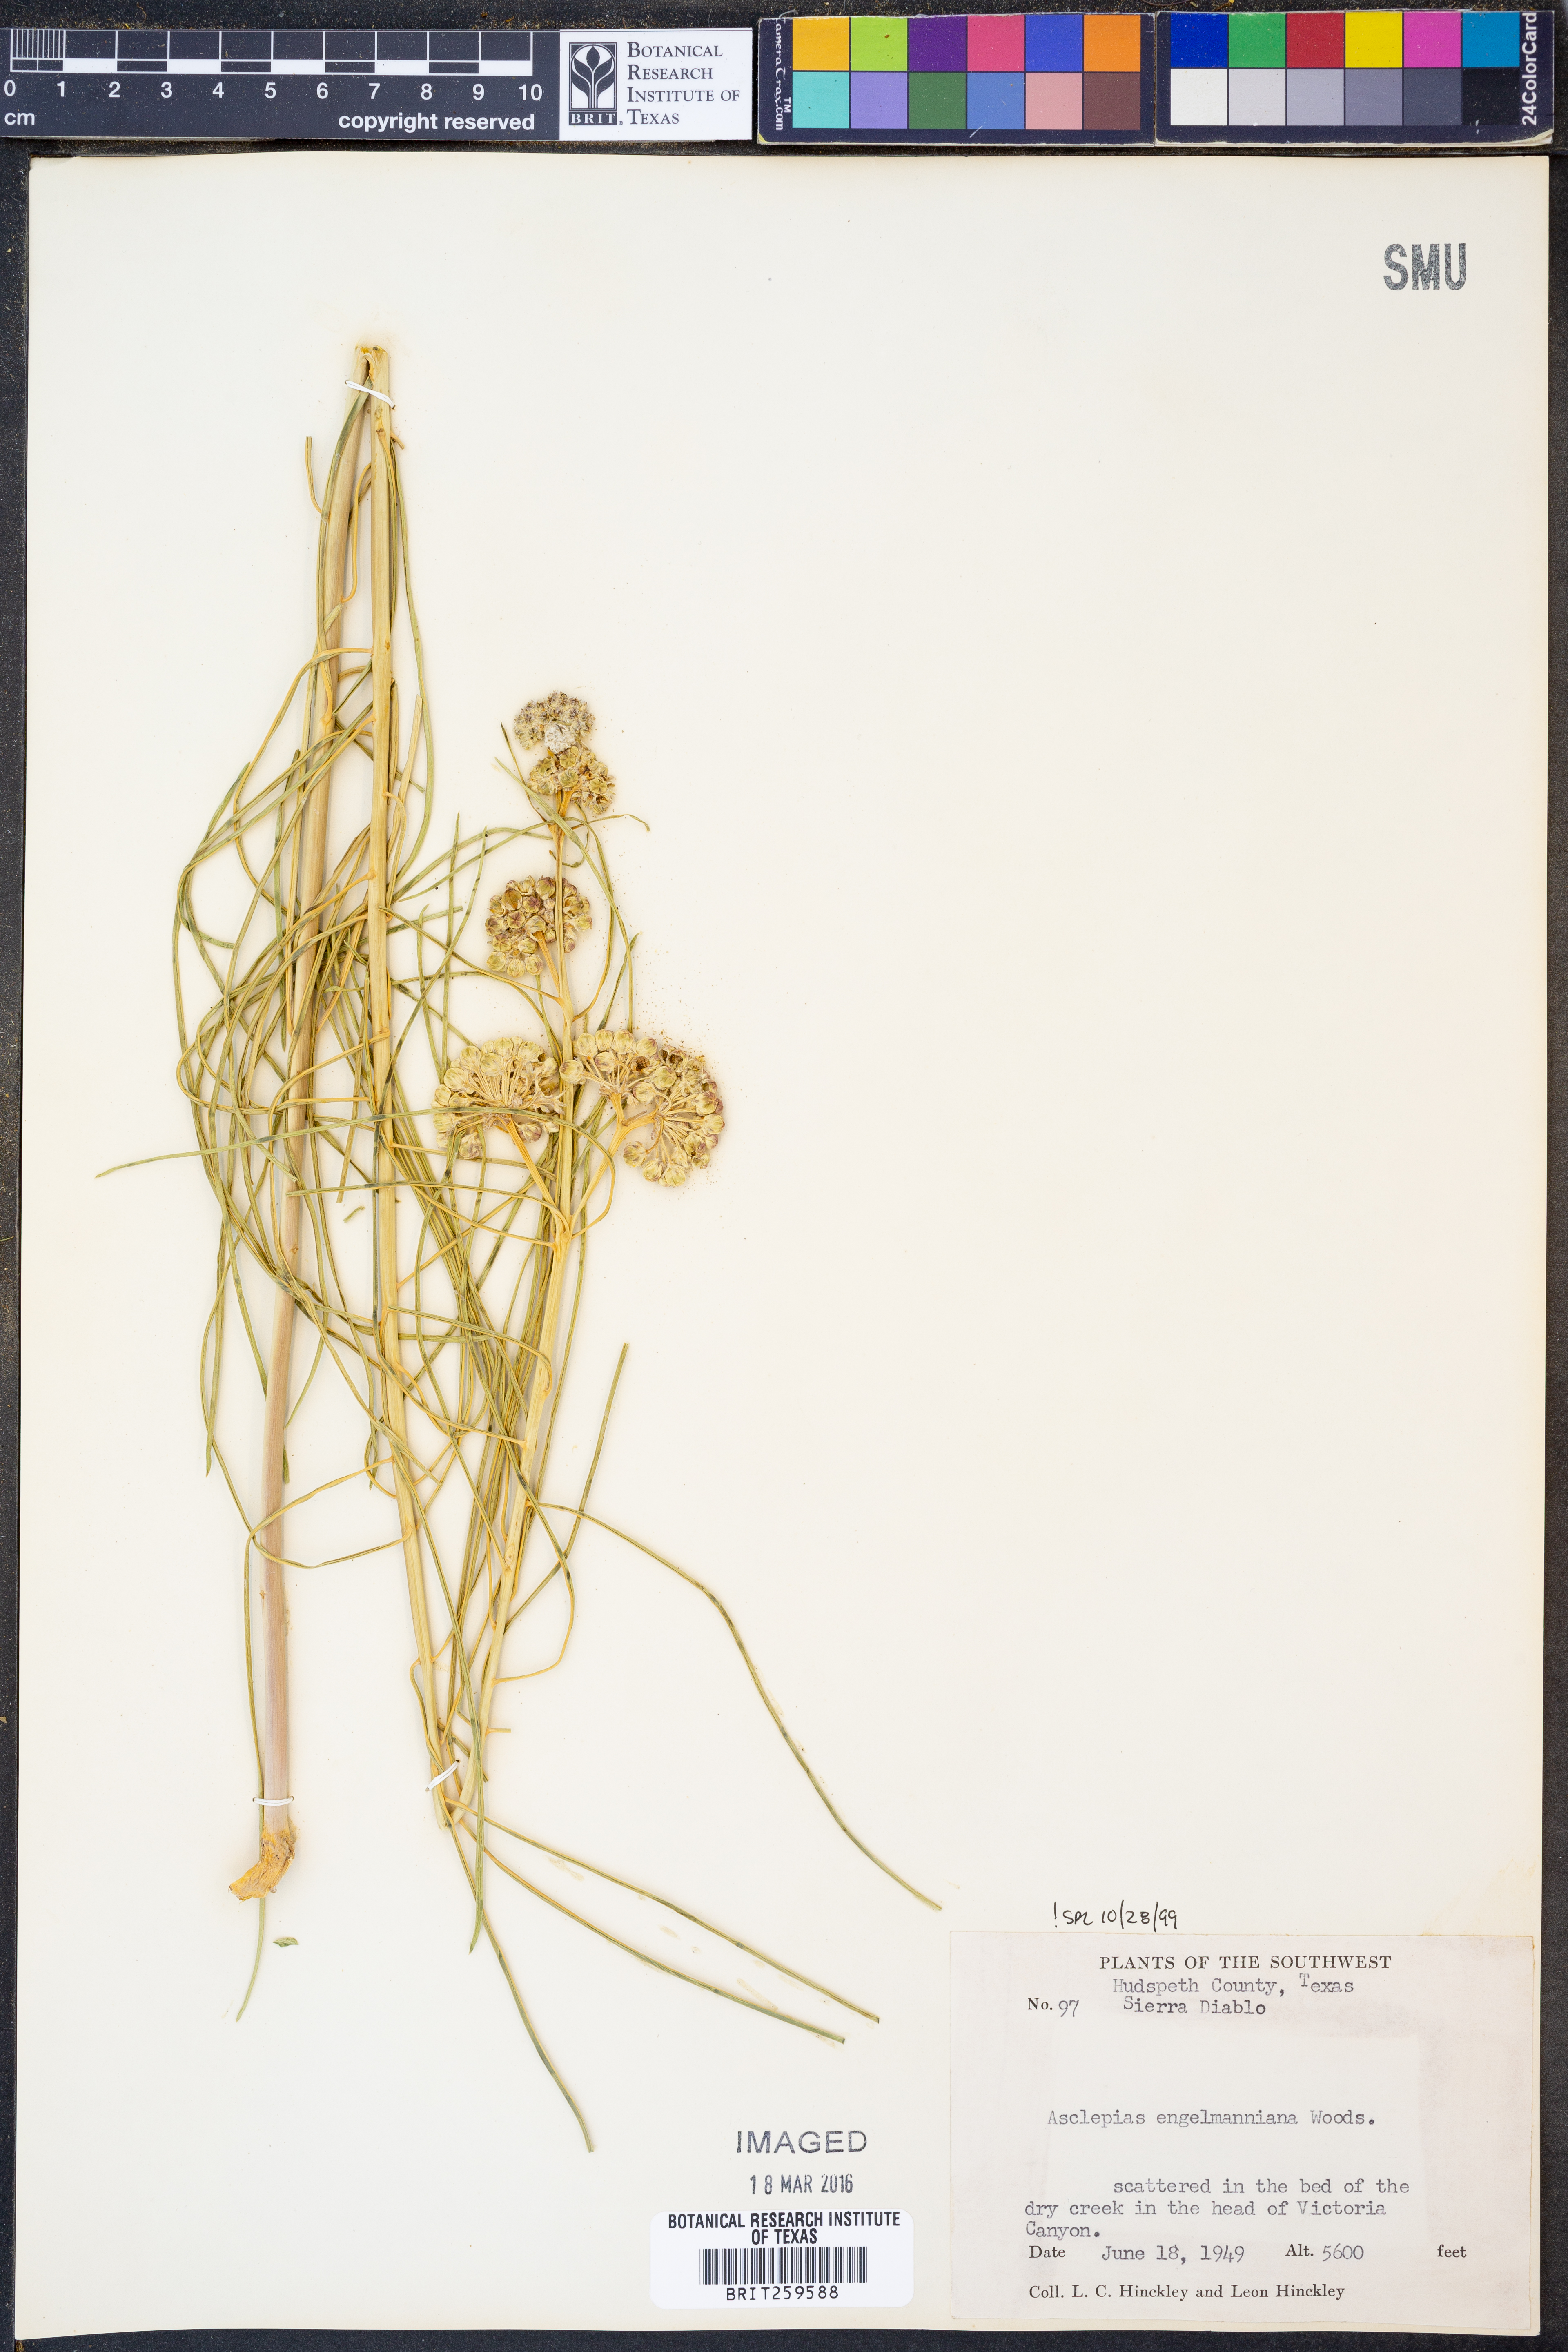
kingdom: Plantae
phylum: Tracheophyta
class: Magnoliopsida
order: Gentianales
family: Apocynaceae
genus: Asclepias
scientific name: Asclepias engelmanniana
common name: Engelmann's milkweed
